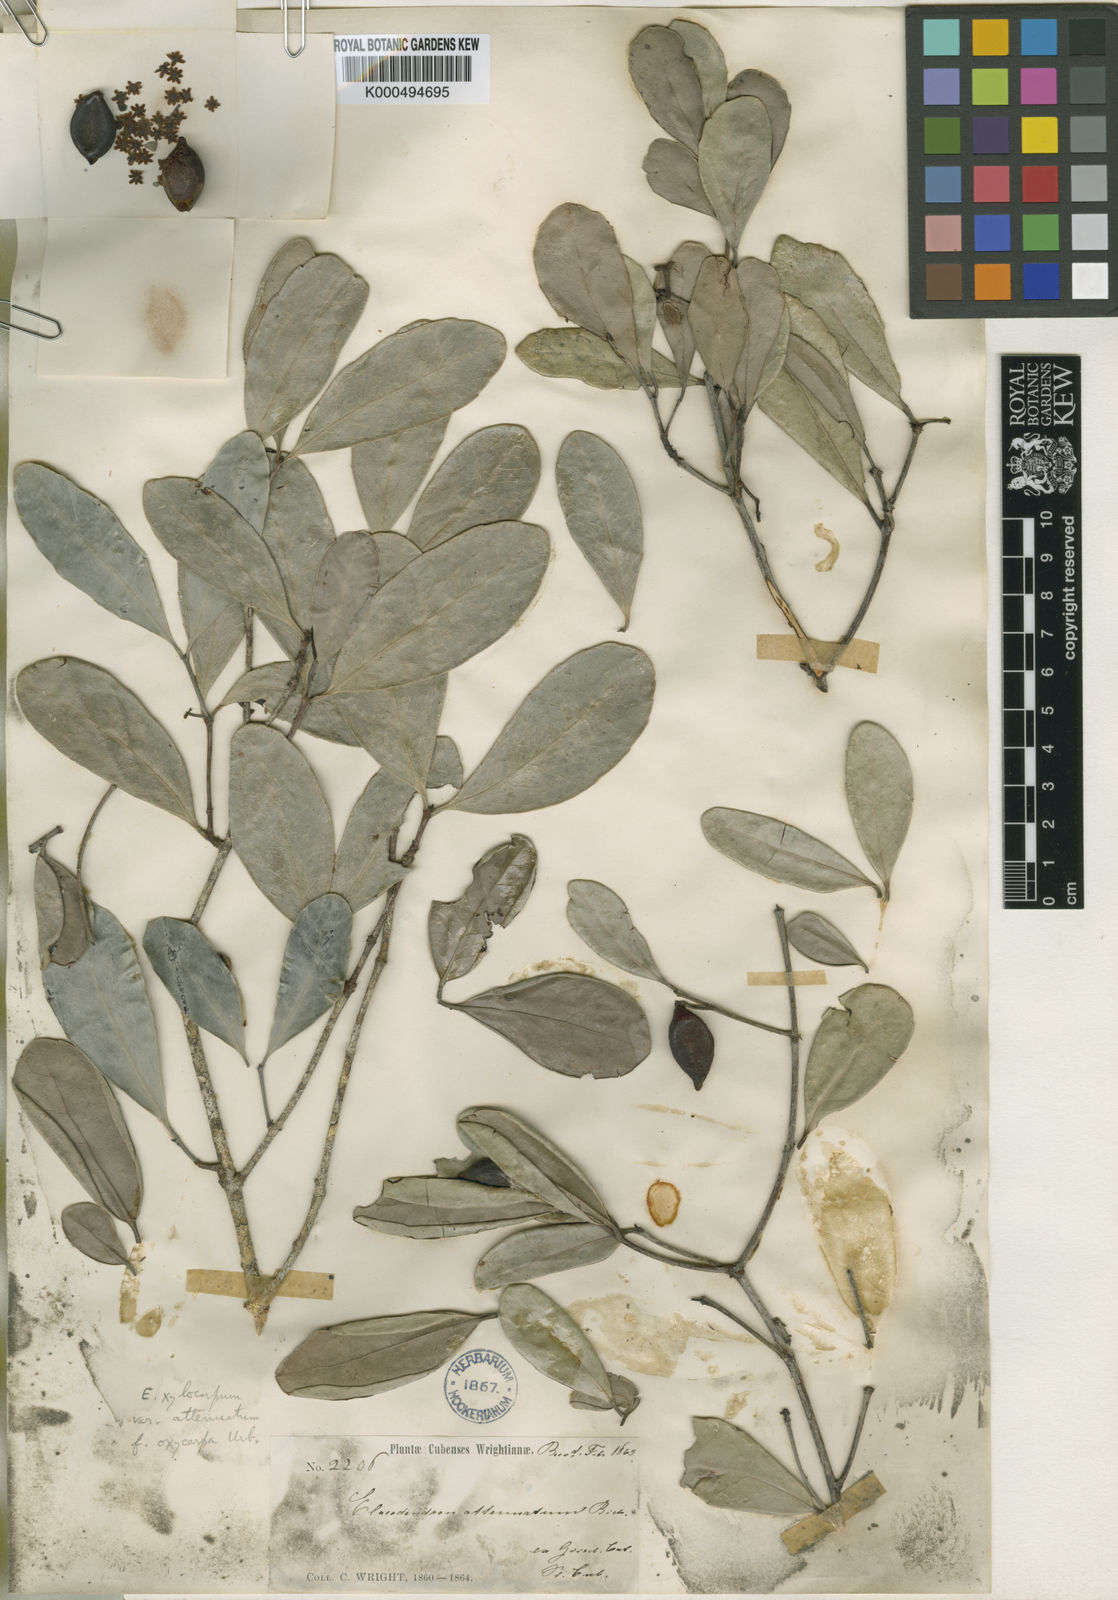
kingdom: Plantae
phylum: Tracheophyta
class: Magnoliopsida
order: Celastrales
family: Celastraceae
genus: Elaeodendron
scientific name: Elaeodendron xylocarpum
